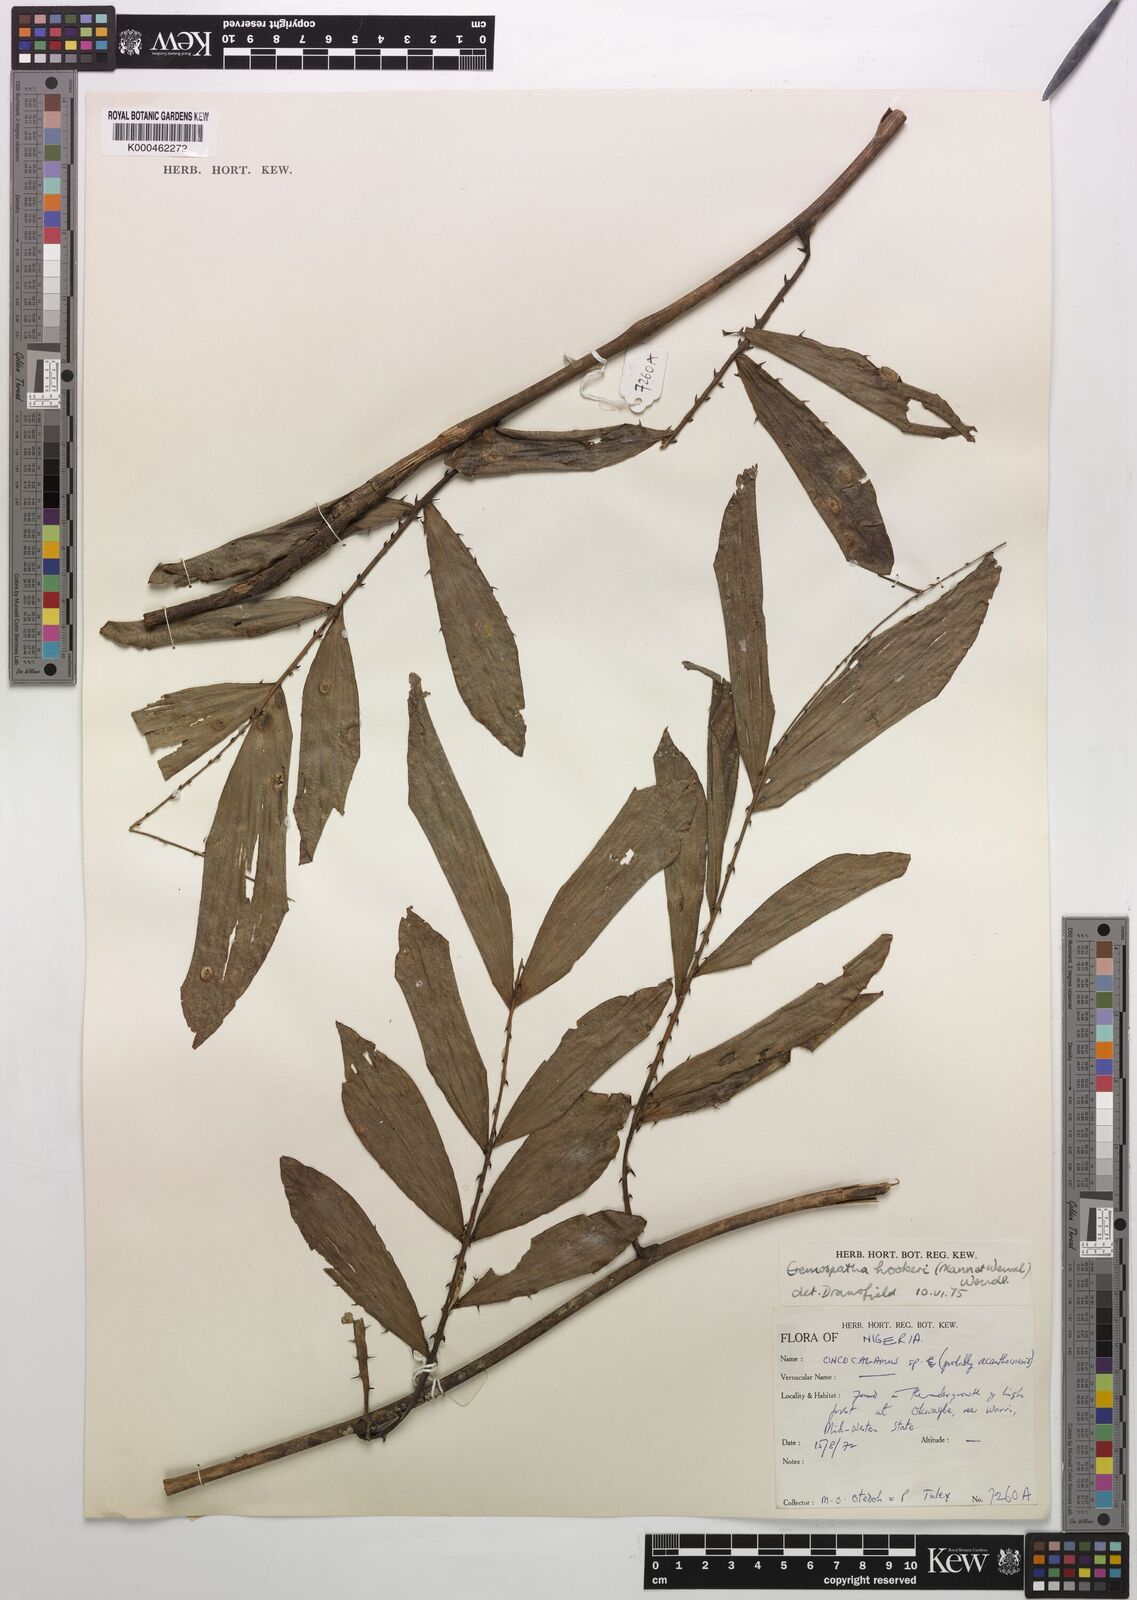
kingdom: Plantae
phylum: Tracheophyta
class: Liliopsida
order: Arecales
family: Arecaceae
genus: Eremospatha
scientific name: Eremospatha hookeri
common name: Rattan
